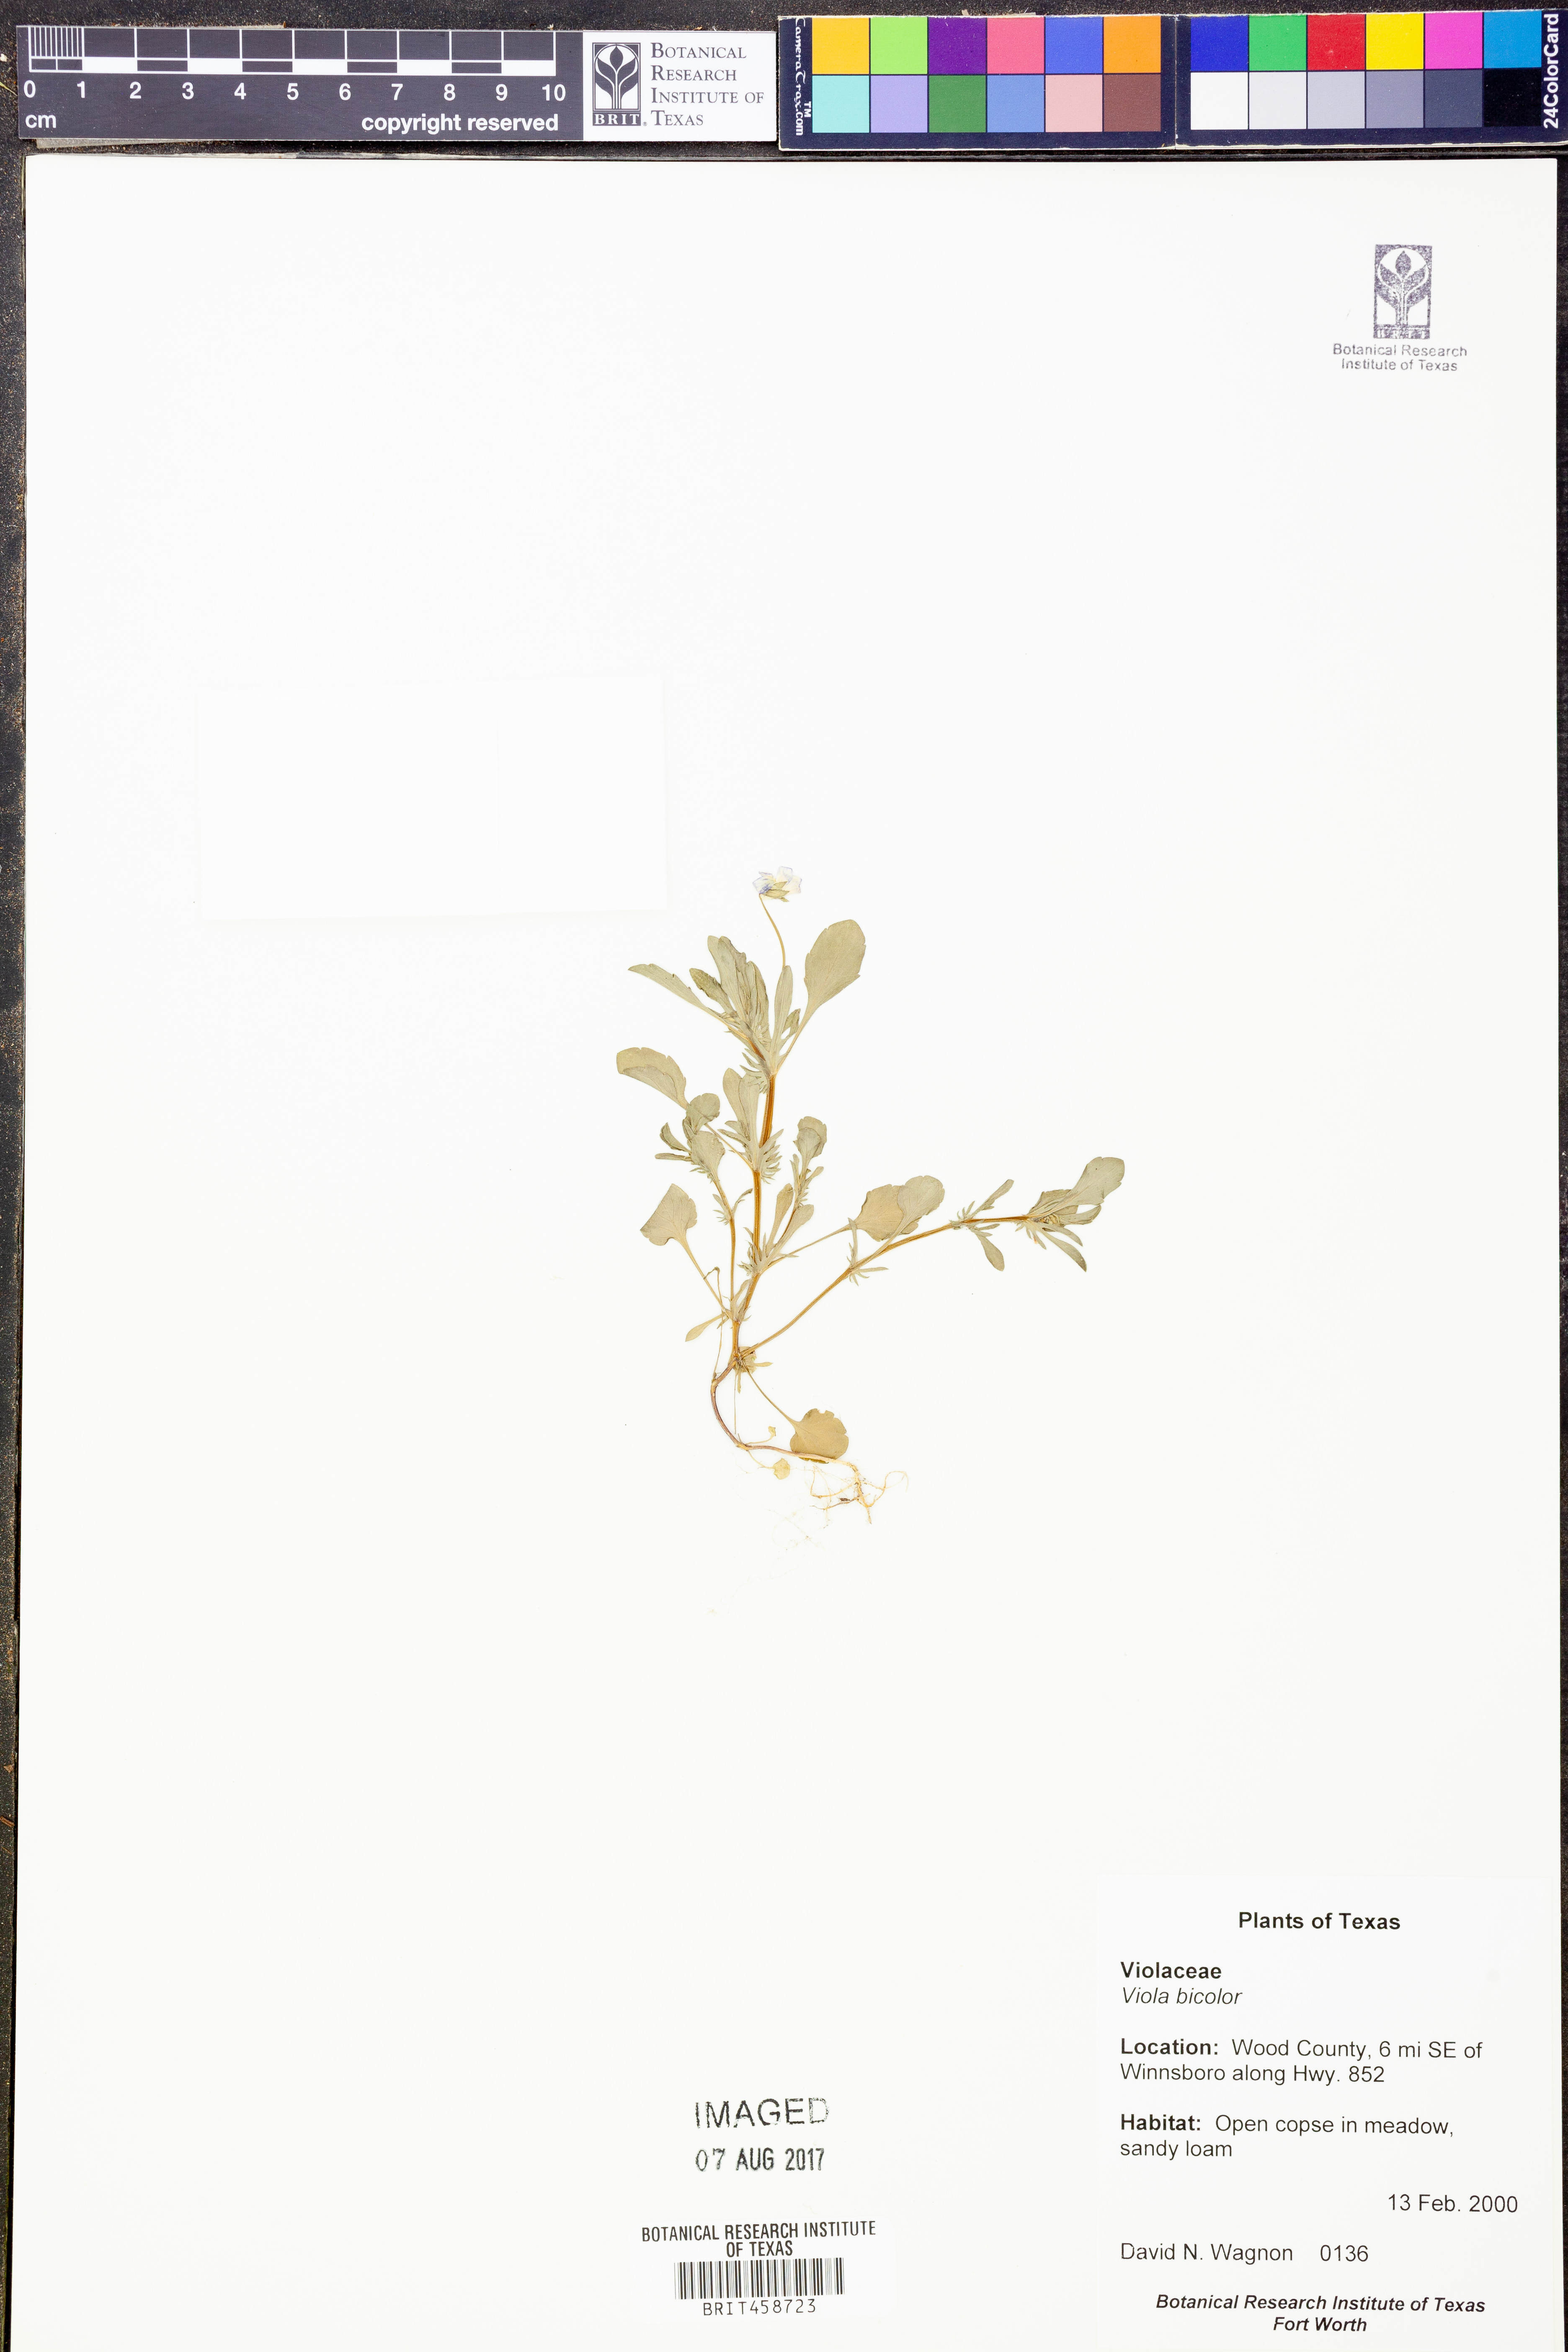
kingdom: Plantae
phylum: Tracheophyta
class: Magnoliopsida
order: Malpighiales
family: Violaceae
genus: Viola
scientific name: Viola rafinesquei
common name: American field pansy
